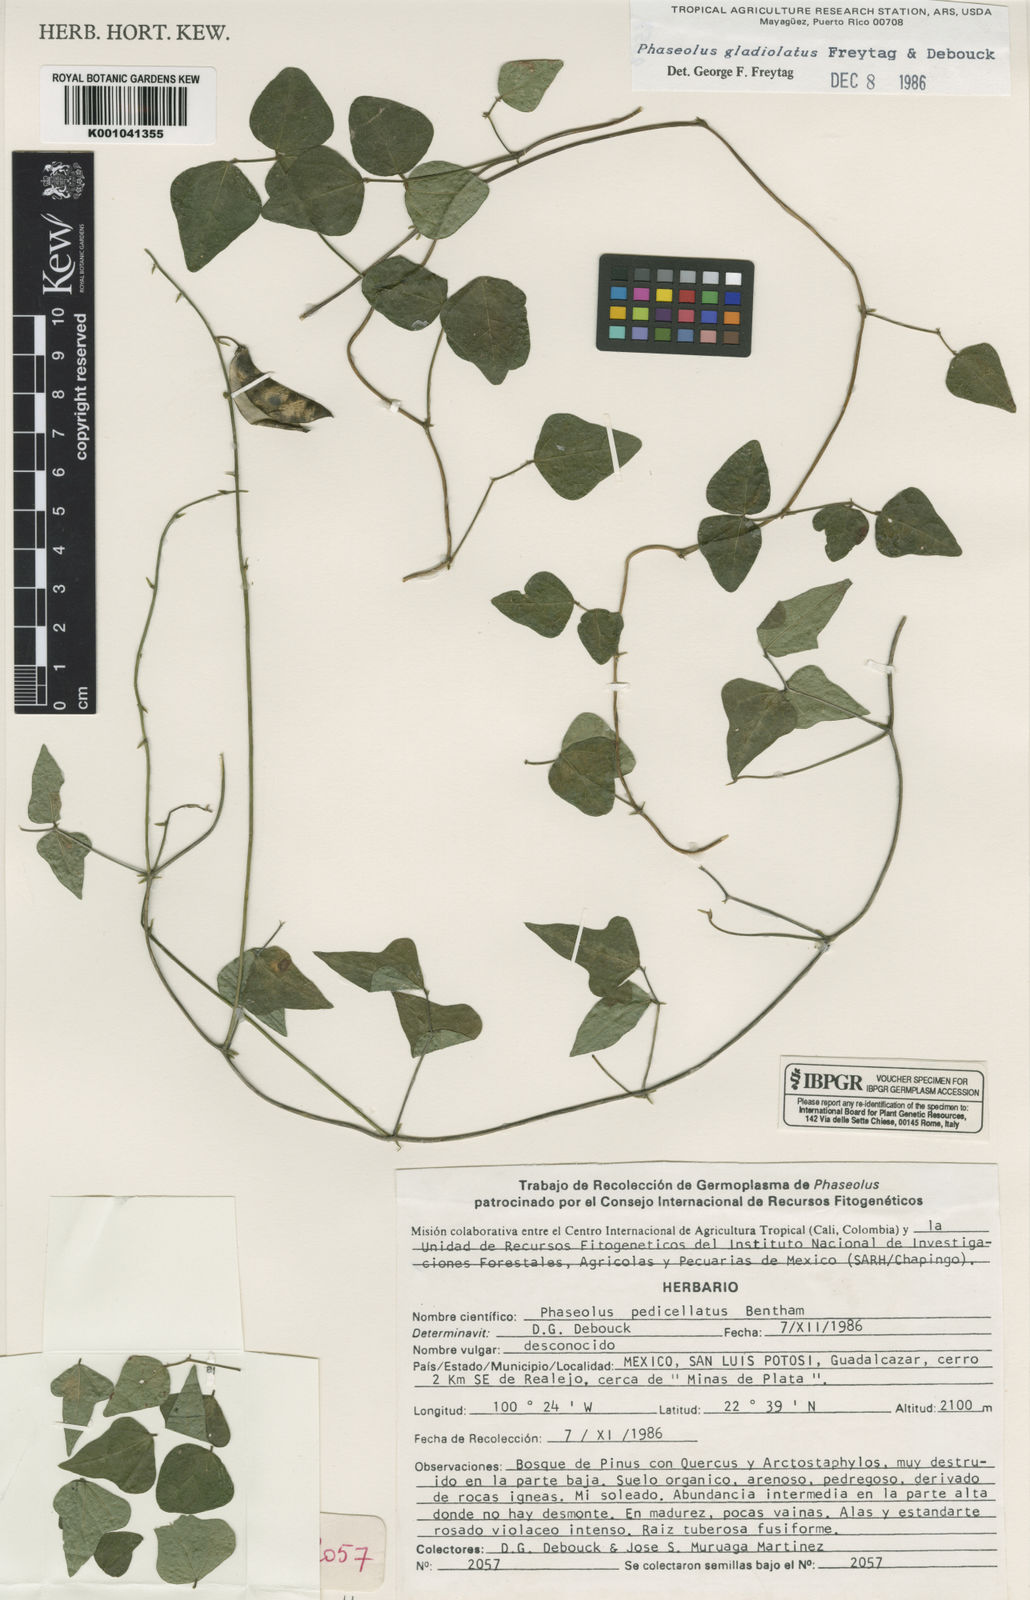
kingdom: Plantae
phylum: Tracheophyta
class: Magnoliopsida
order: Fabales
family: Fabaceae
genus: Phaseolus
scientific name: Phaseolus pedicellatus
